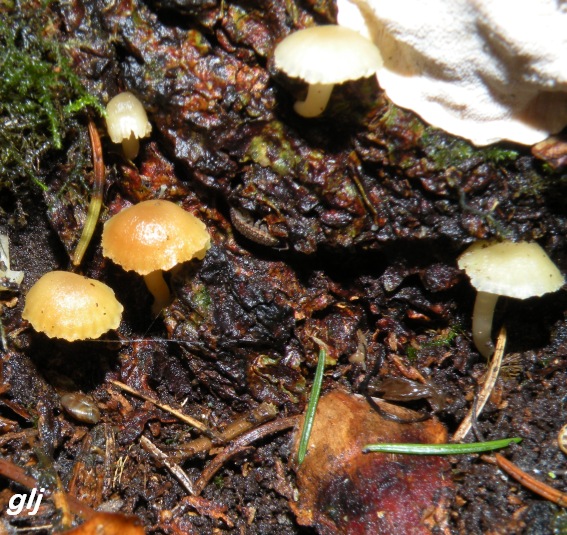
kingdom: Fungi
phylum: Basidiomycota
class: Agaricomycetes
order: Agaricales
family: Hygrophoraceae
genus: Chrysomphalina
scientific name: Chrysomphalina grossula
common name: stød-gyldenblad
